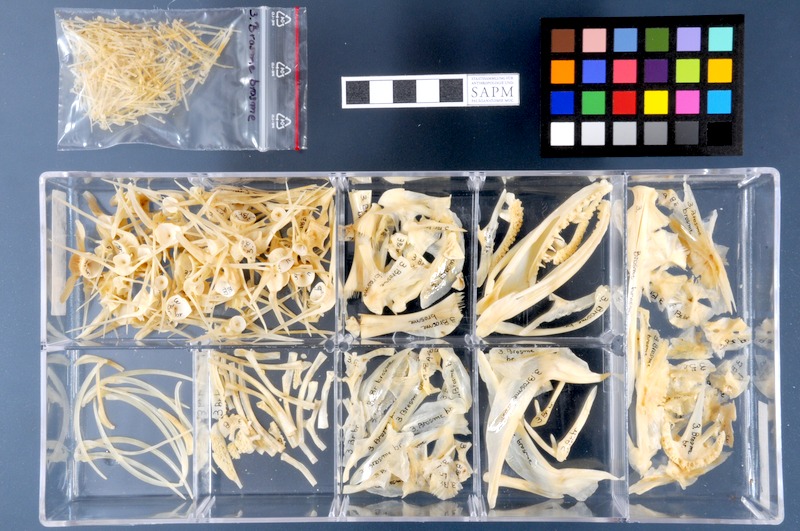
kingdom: Animalia
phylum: Chordata
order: Gadiformes
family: Lotidae
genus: Brosme
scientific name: Brosme brosme
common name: Cusk
